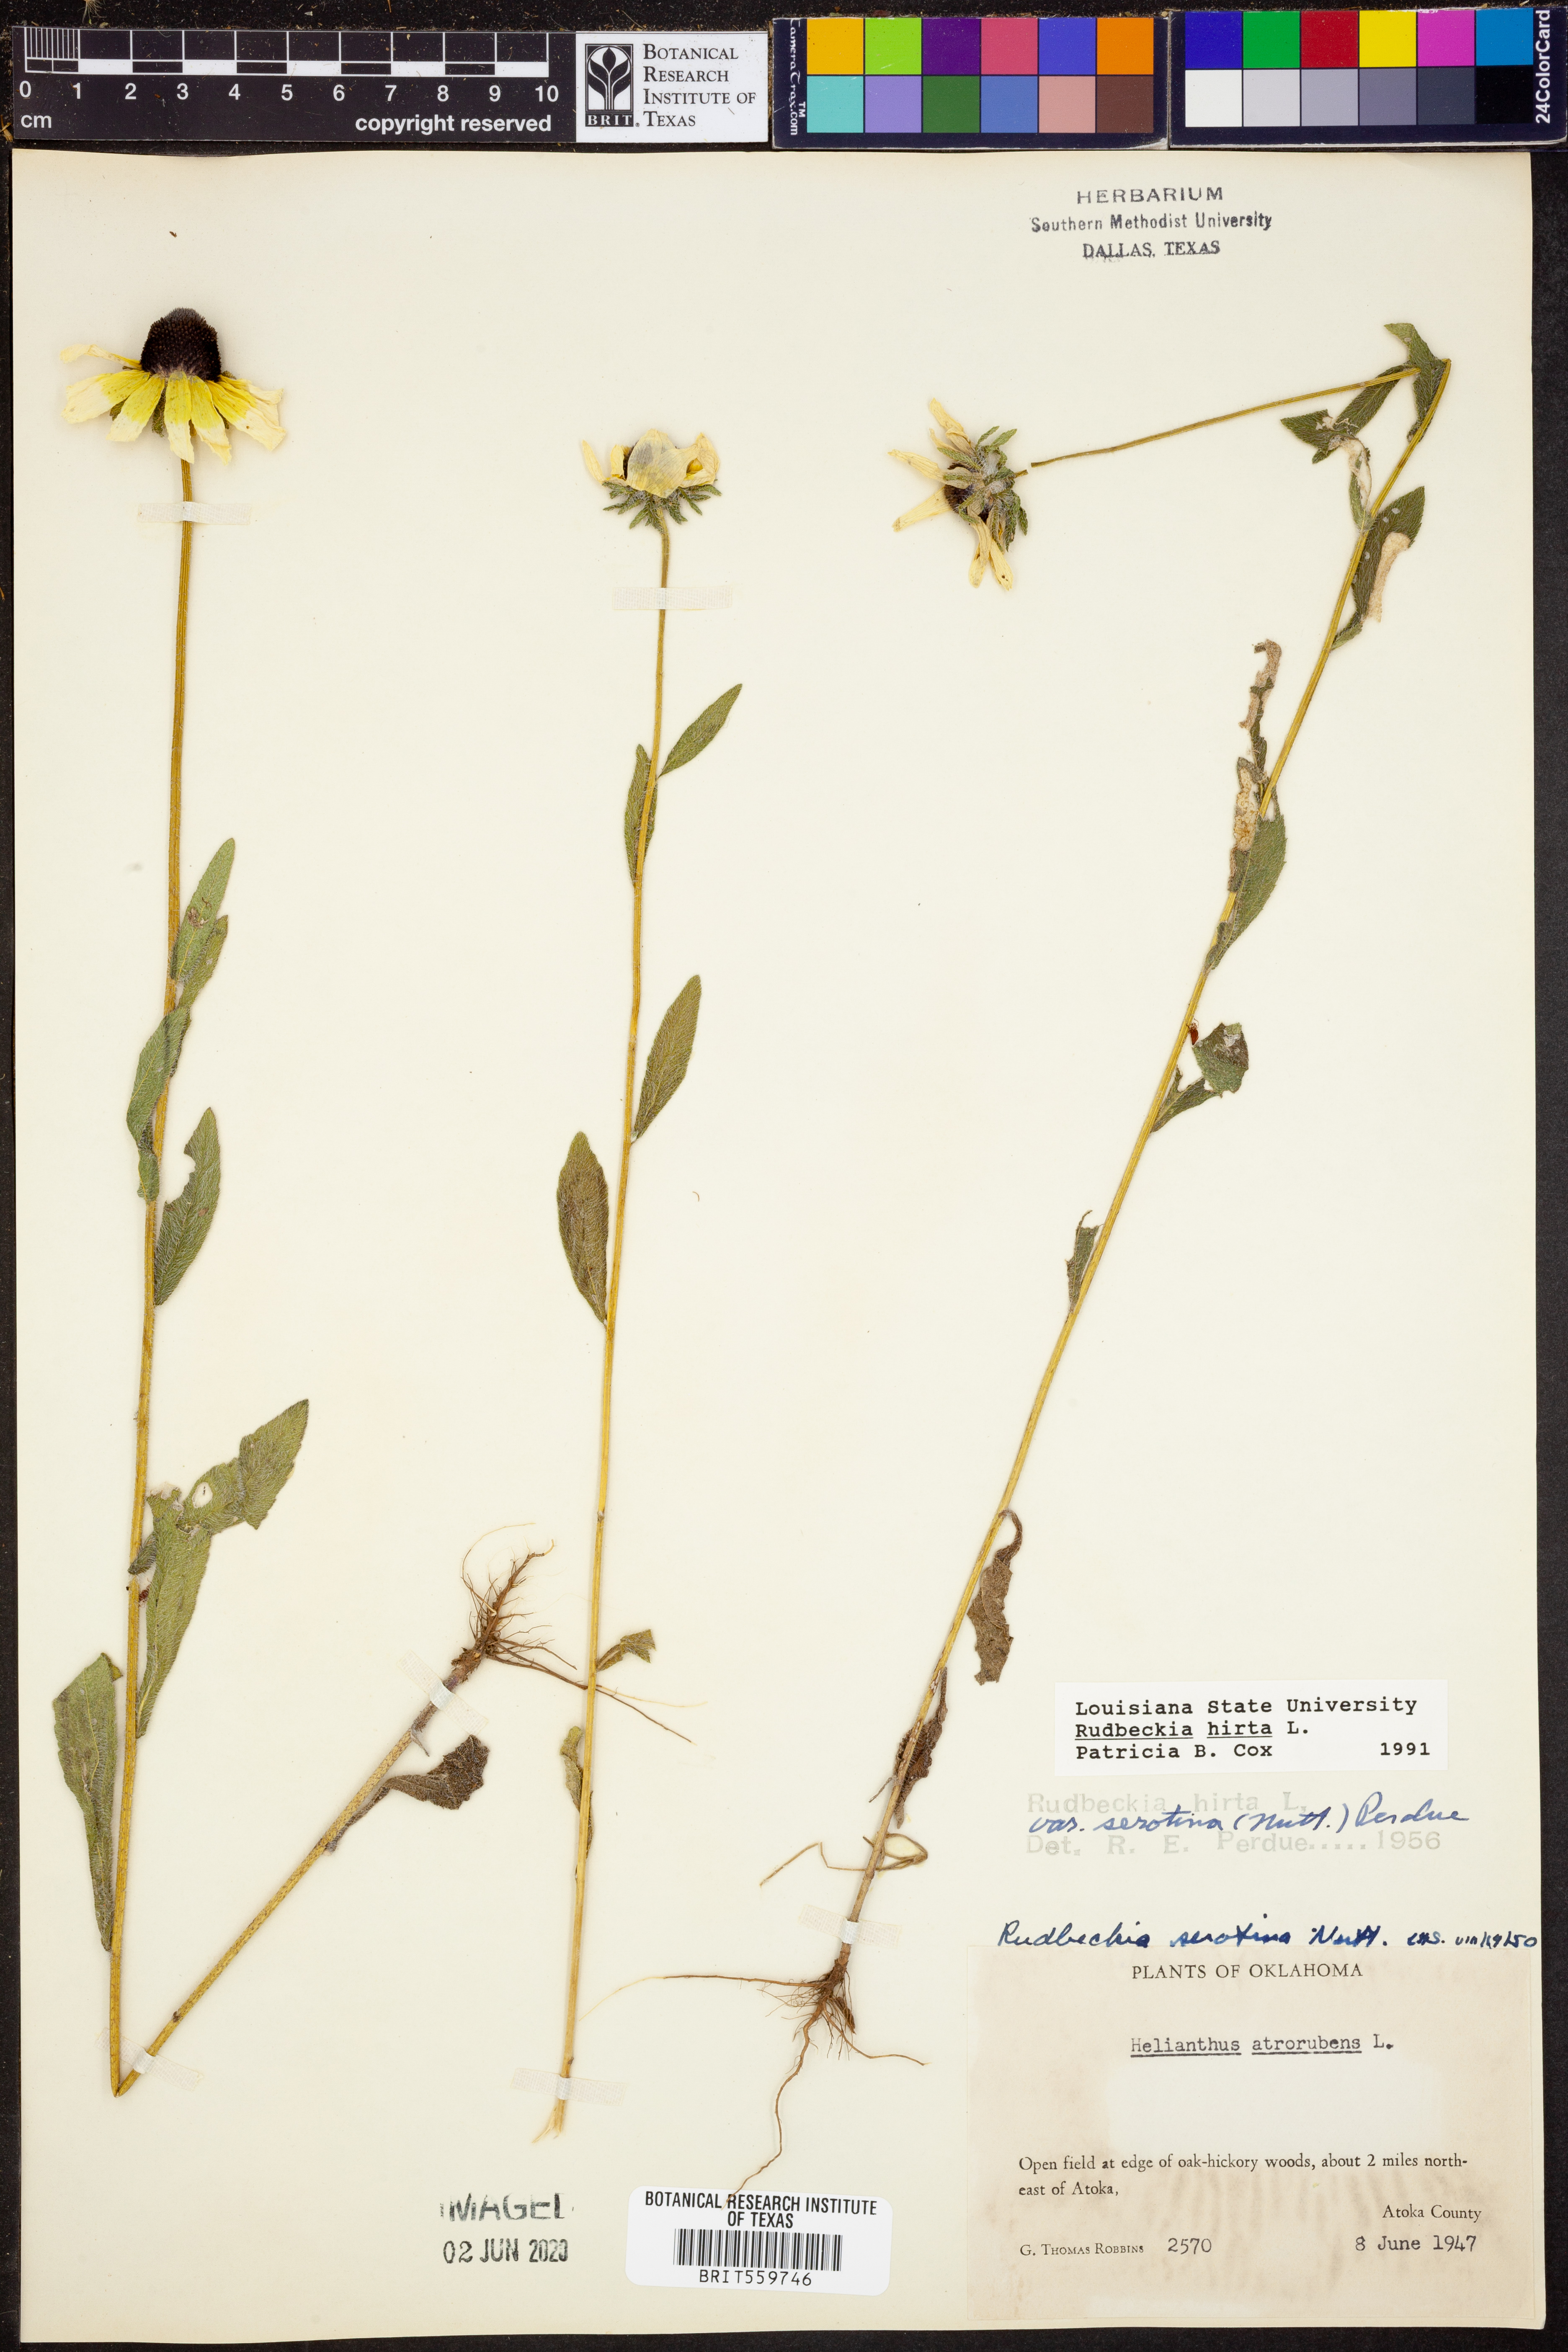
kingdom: Plantae
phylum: Tracheophyta
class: Magnoliopsida
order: Asterales
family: Asteraceae
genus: Rudbeckia
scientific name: Rudbeckia hirta
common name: Black-eyed-susan
